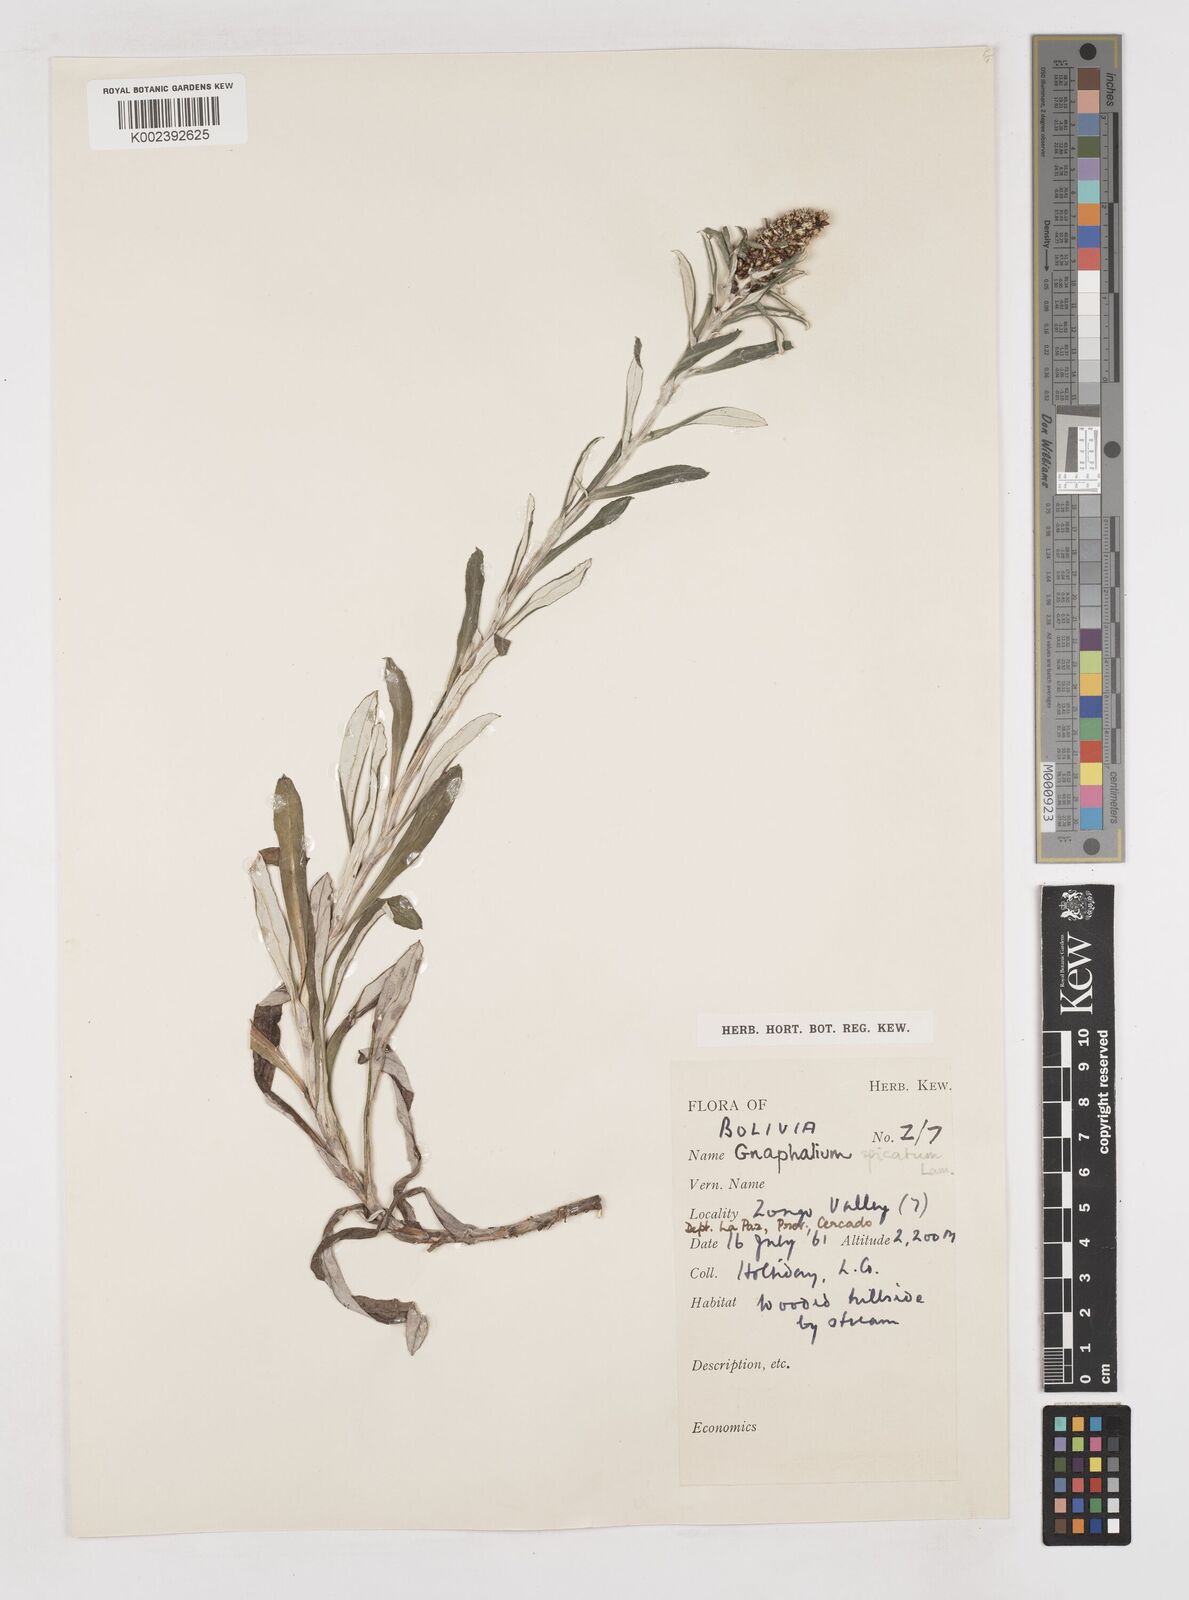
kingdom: Plantae
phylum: Tracheophyta
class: Magnoliopsida
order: Asterales
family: Asteraceae
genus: Gamochaeta
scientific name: Gamochaeta americana
